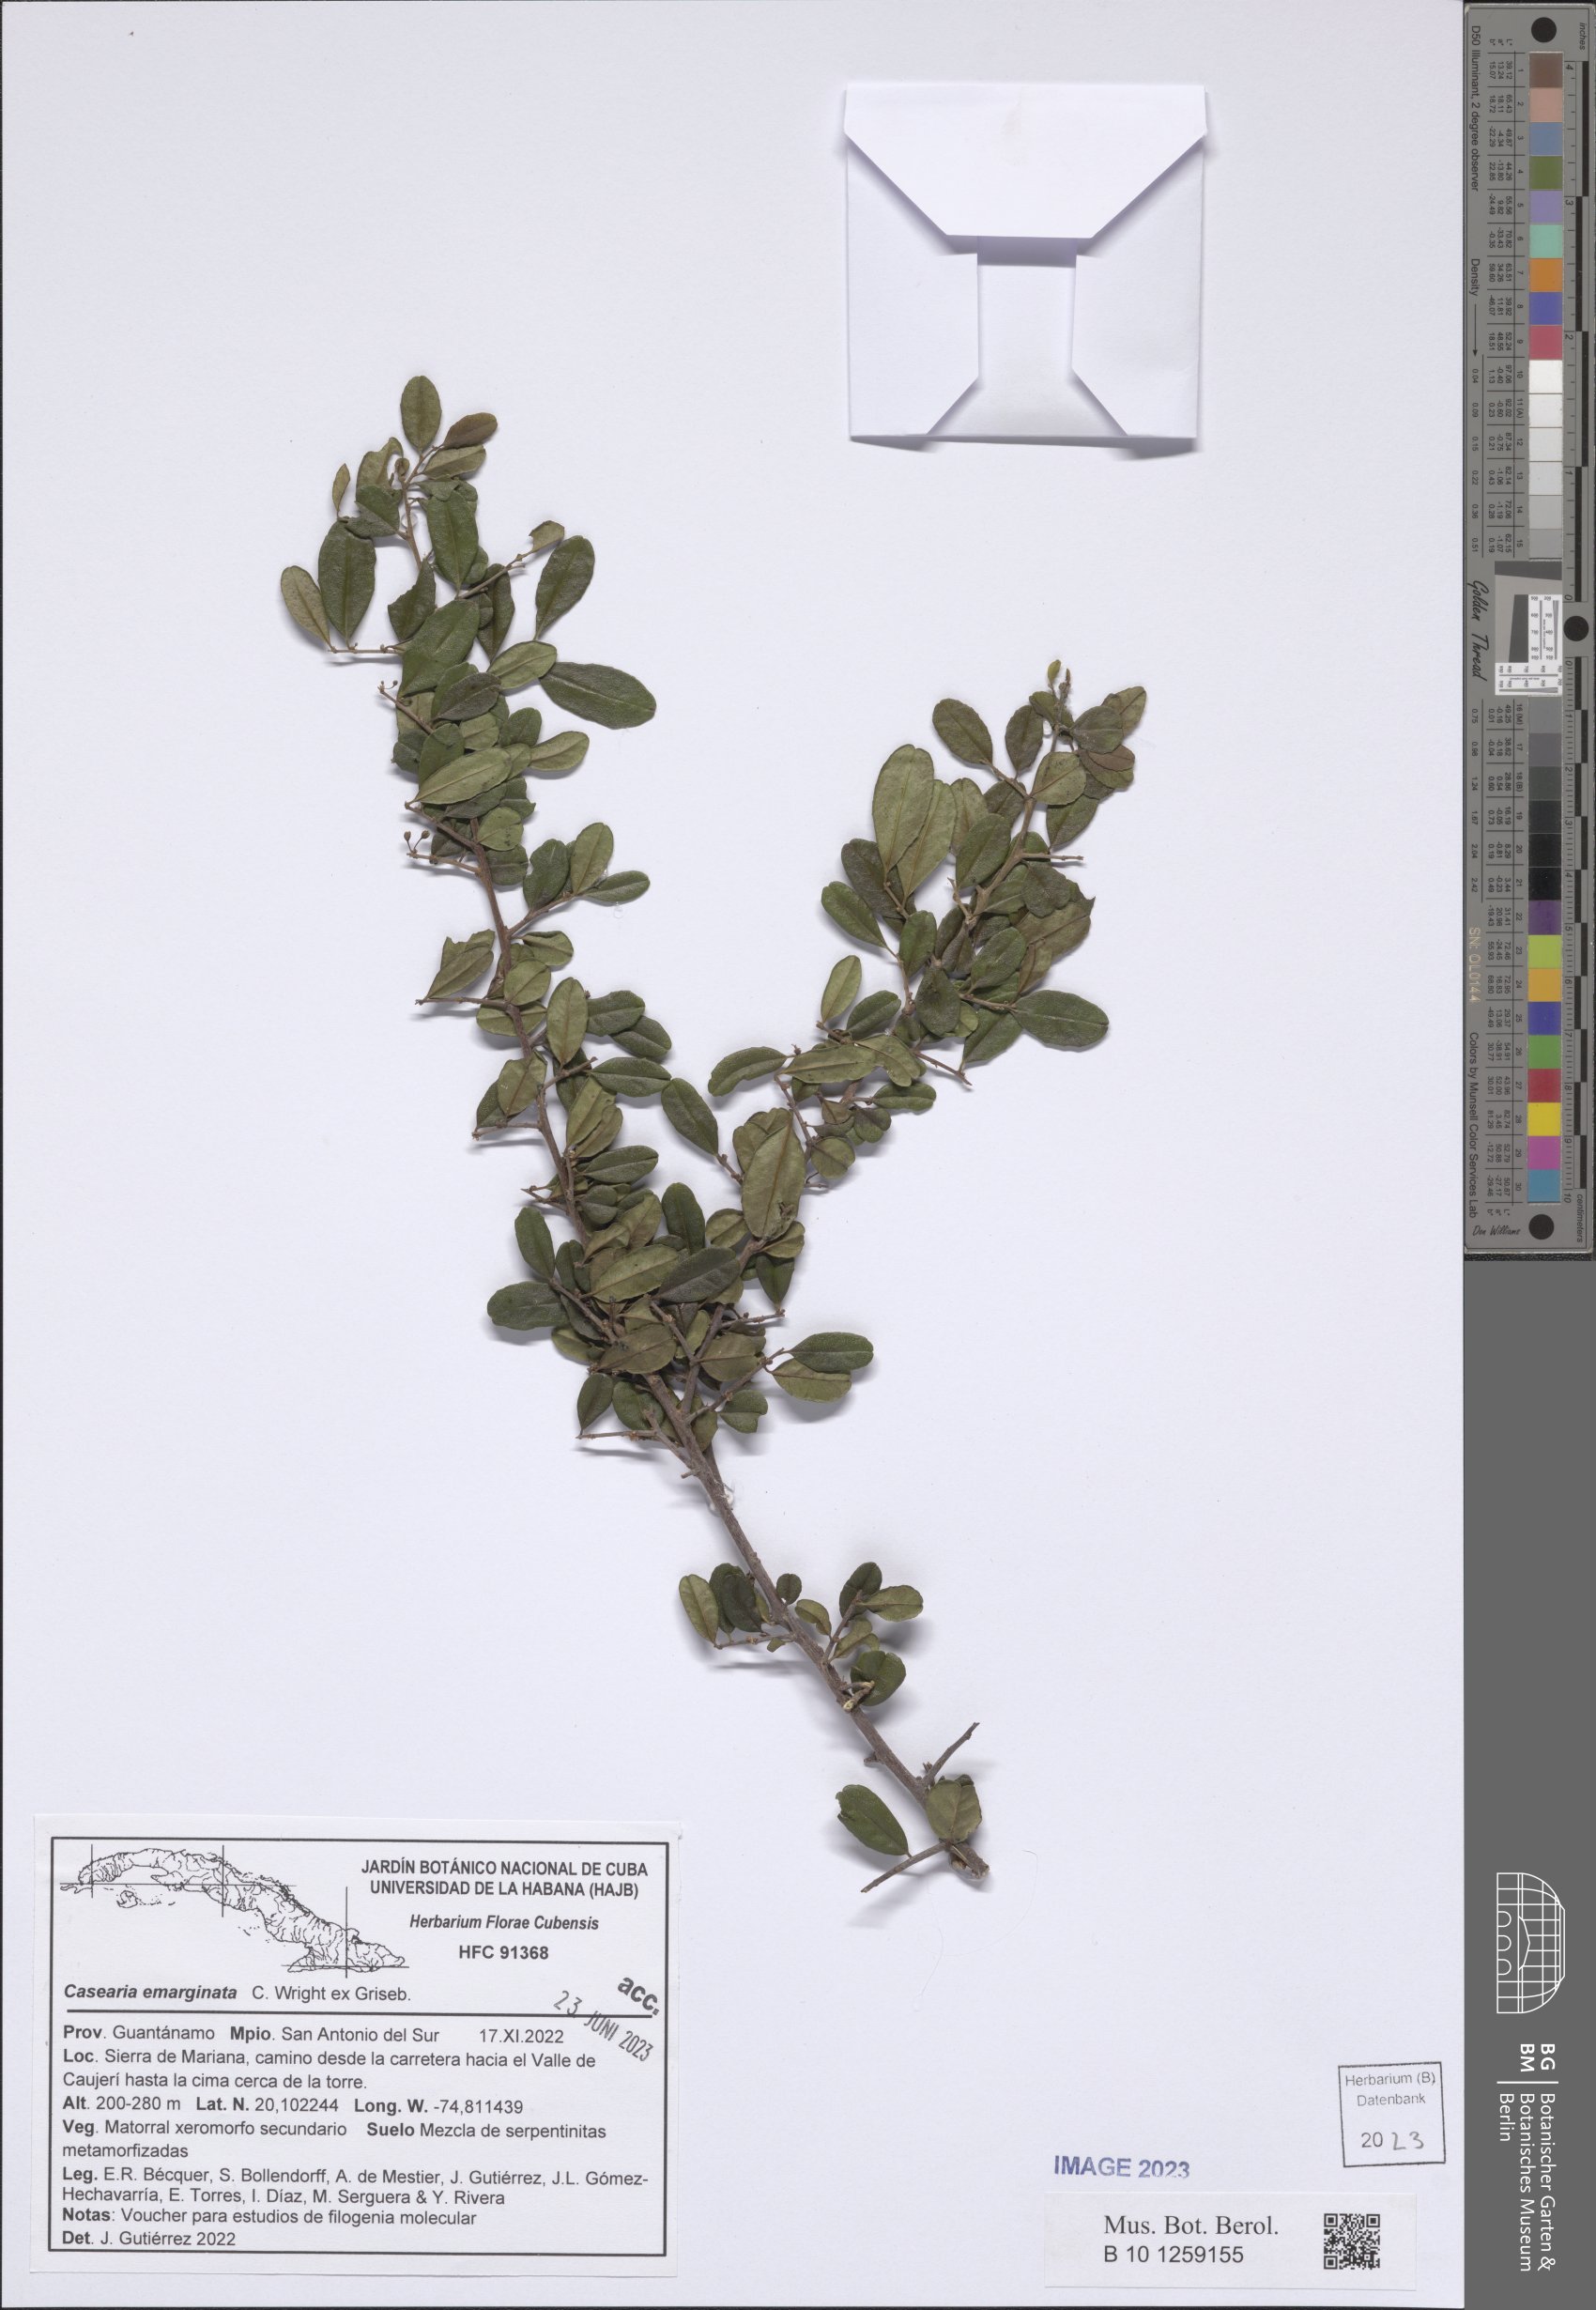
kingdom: Plantae
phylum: Tracheophyta
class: Magnoliopsida
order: Malpighiales
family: Salicaceae
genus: Casearia
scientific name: Casearia emarginata
